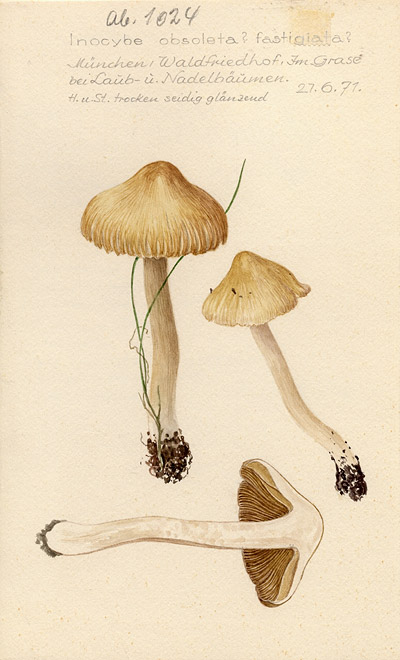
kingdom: Fungi
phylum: Basidiomycota
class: Agaricomycetes
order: Agaricales
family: Inocybaceae
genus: Pseudosperma
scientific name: Pseudosperma rimosum
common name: Split fibrecap
